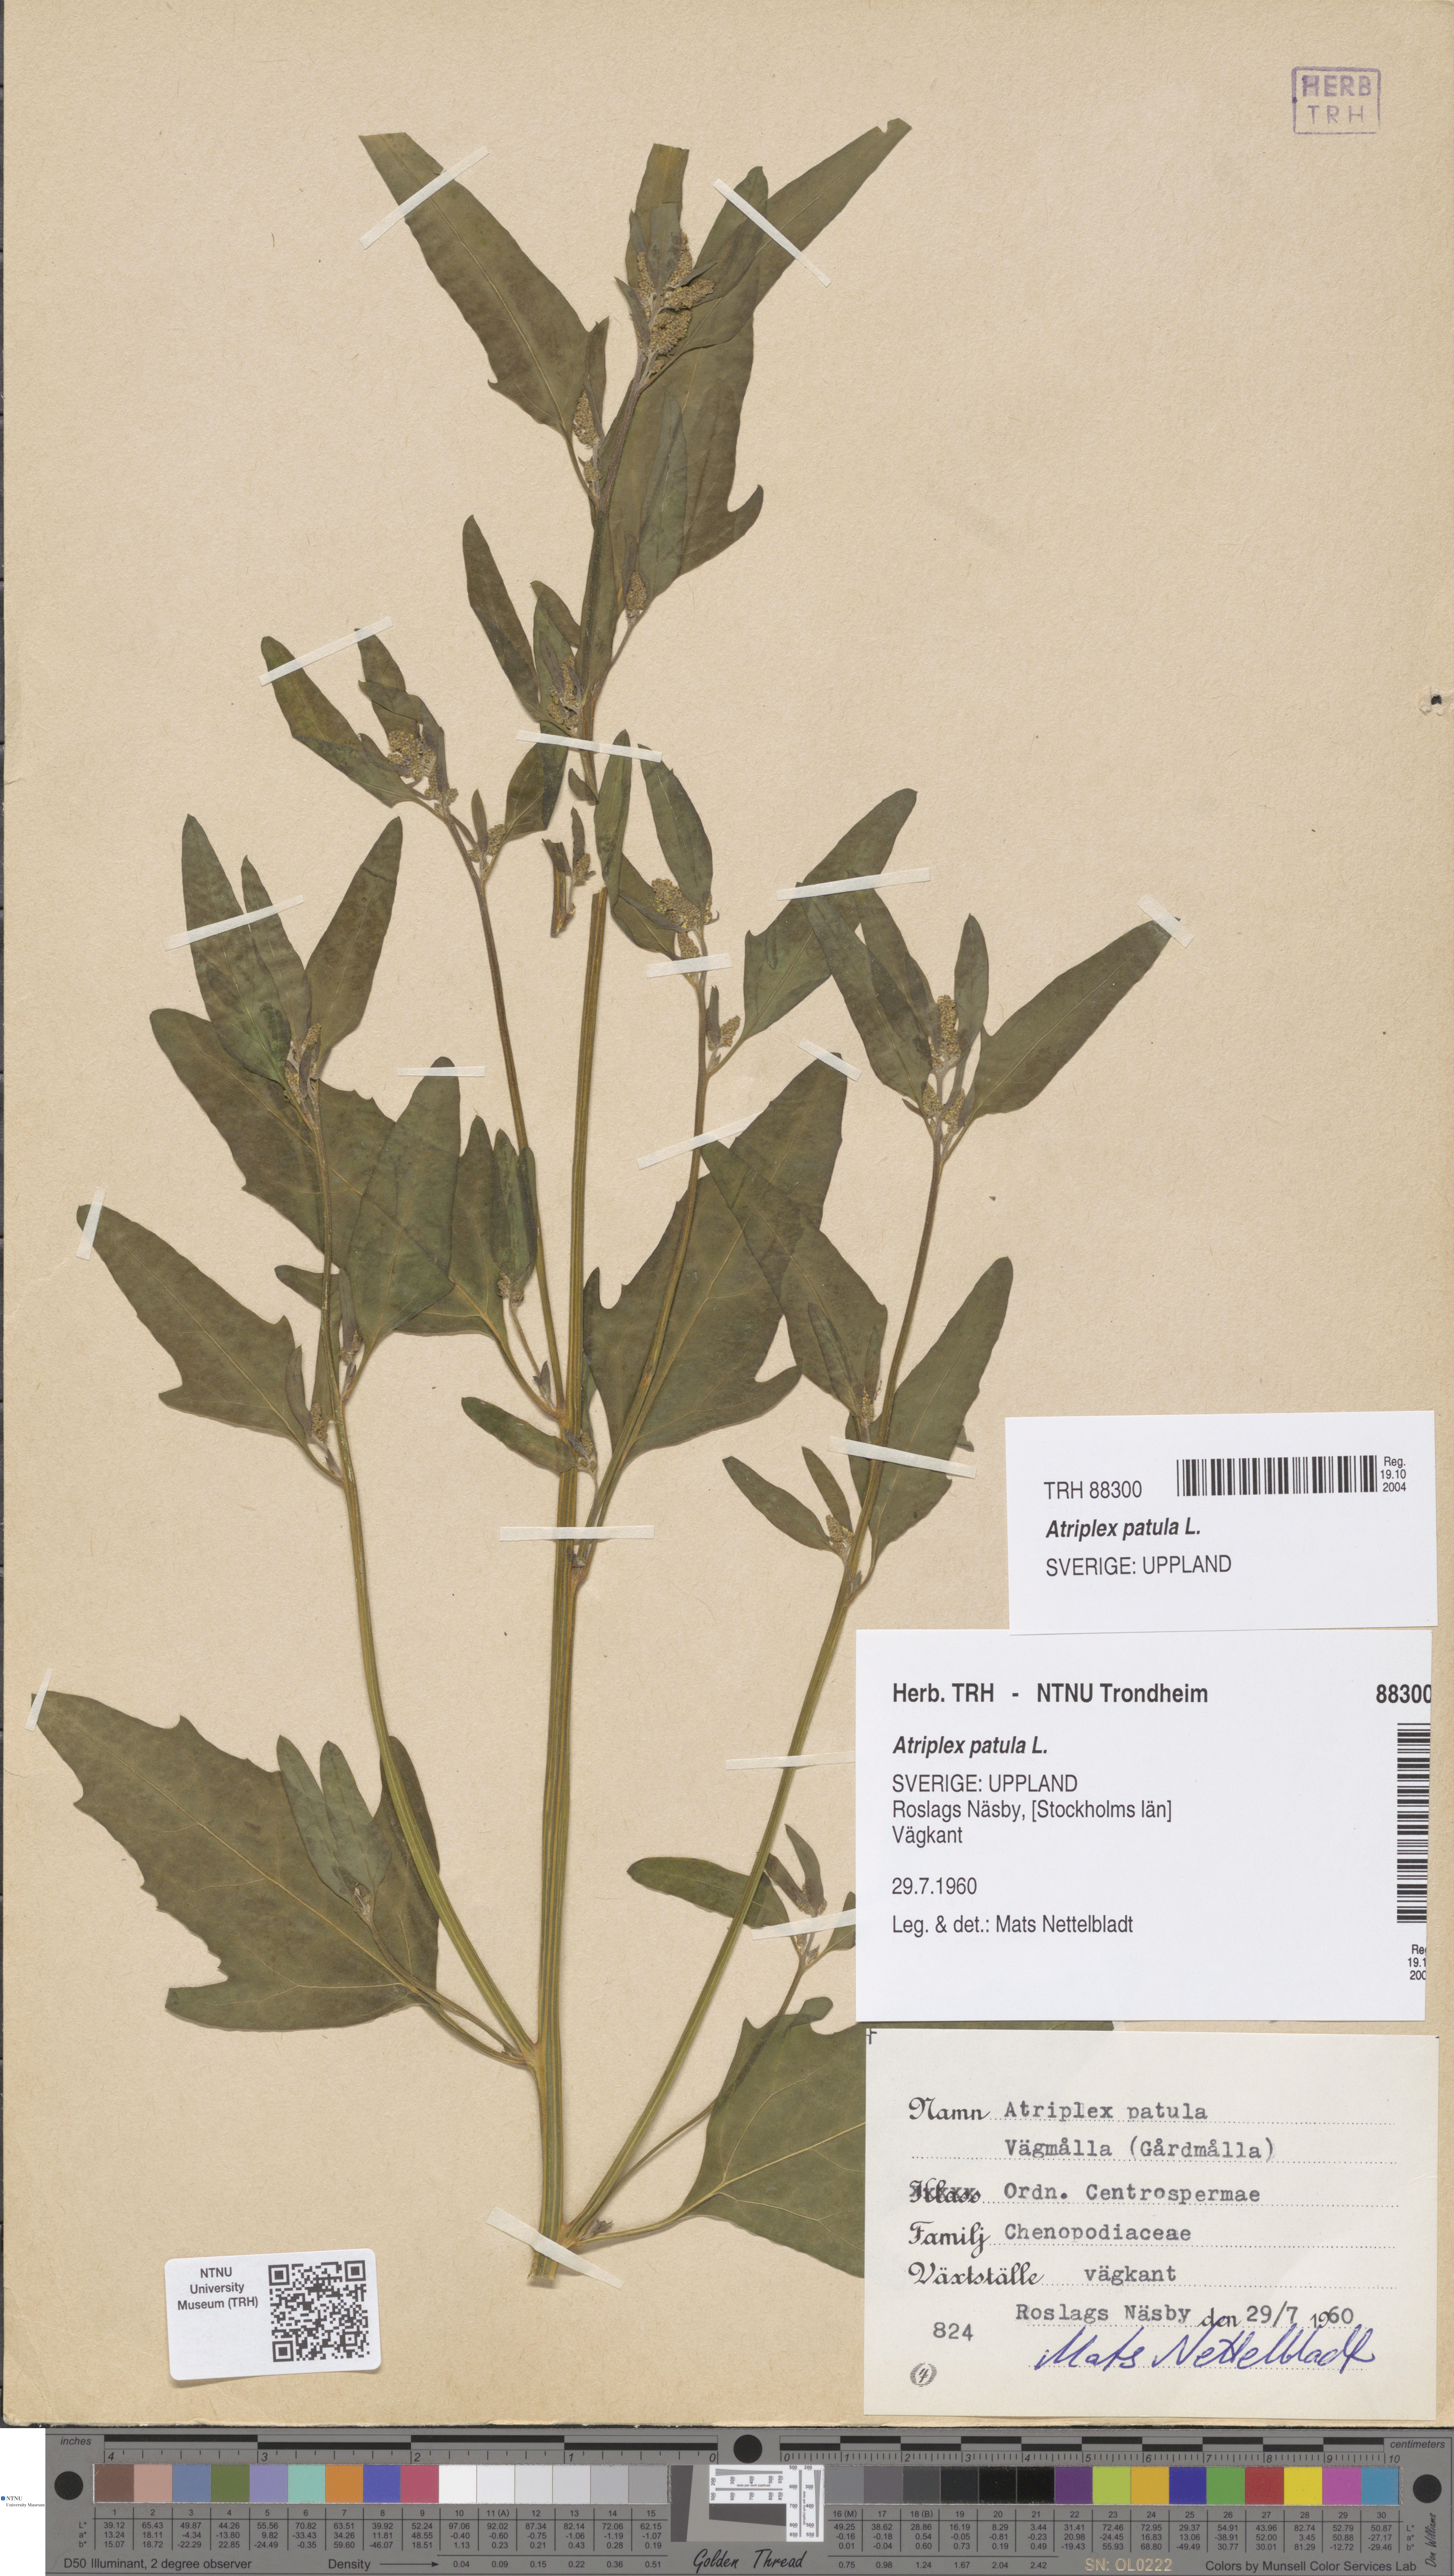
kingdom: Plantae
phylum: Tracheophyta
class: Magnoliopsida
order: Caryophyllales
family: Amaranthaceae
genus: Atriplex
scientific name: Atriplex patula
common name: Common orache
